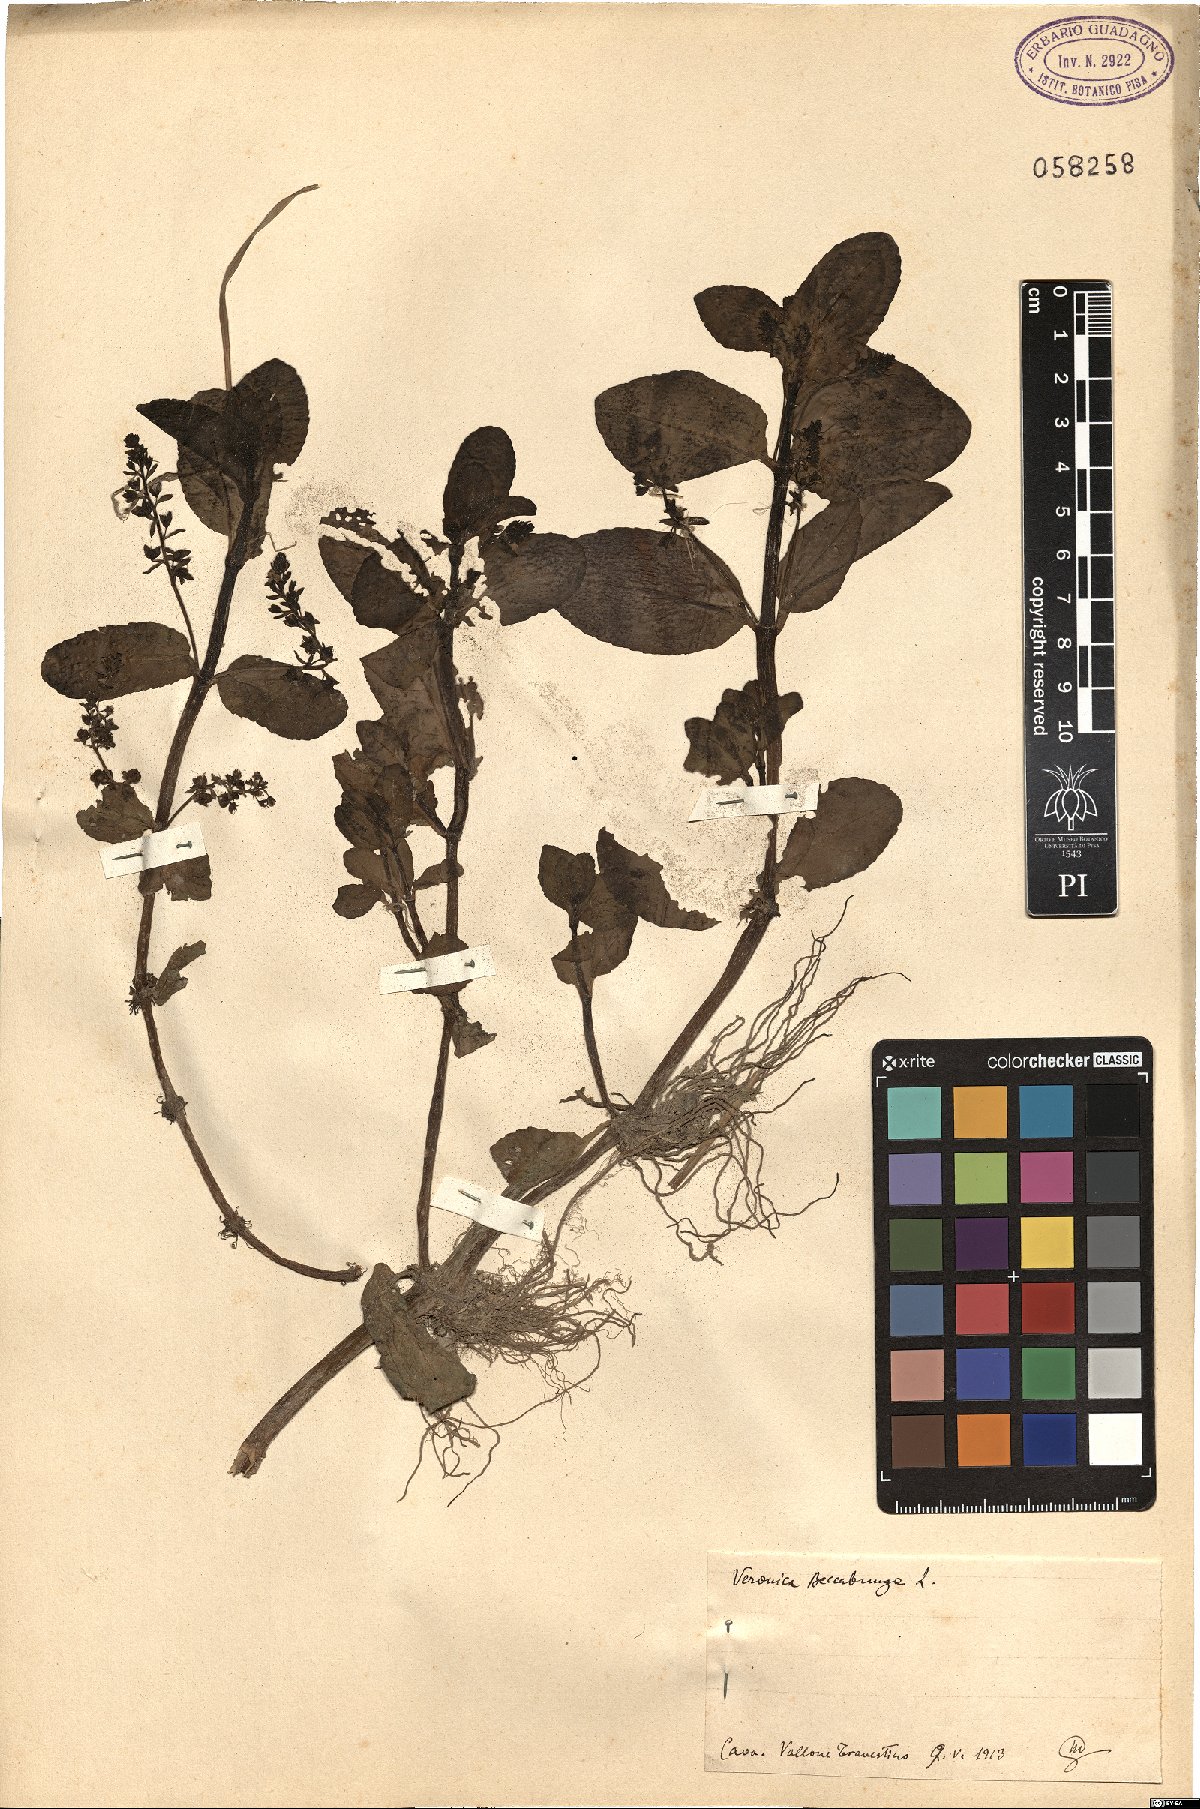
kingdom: Plantae
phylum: Tracheophyta
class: Magnoliopsida
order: Lamiales
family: Plantaginaceae
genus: Veronica
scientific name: Veronica beccabunga
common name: Brooklime
